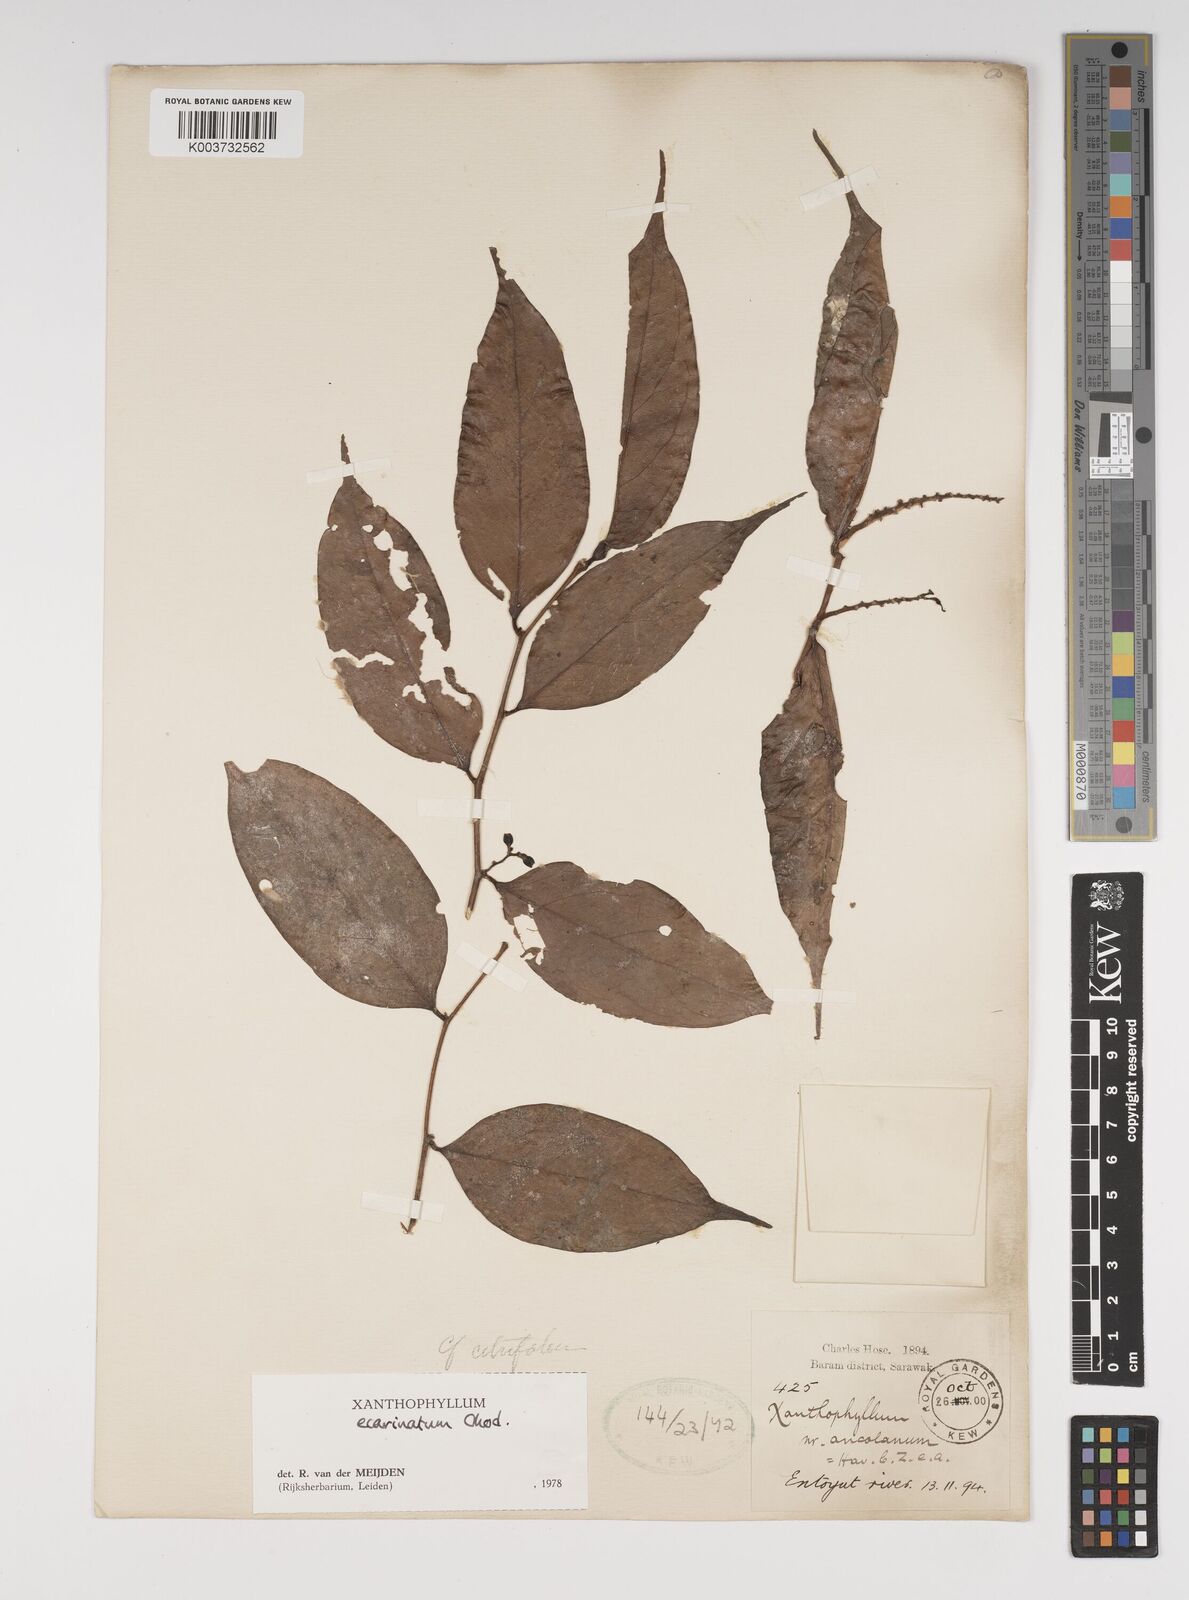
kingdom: Plantae
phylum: Tracheophyta
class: Magnoliopsida
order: Fabales
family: Polygalaceae
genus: Xanthophyllum
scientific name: Xanthophyllum ecarinatum
